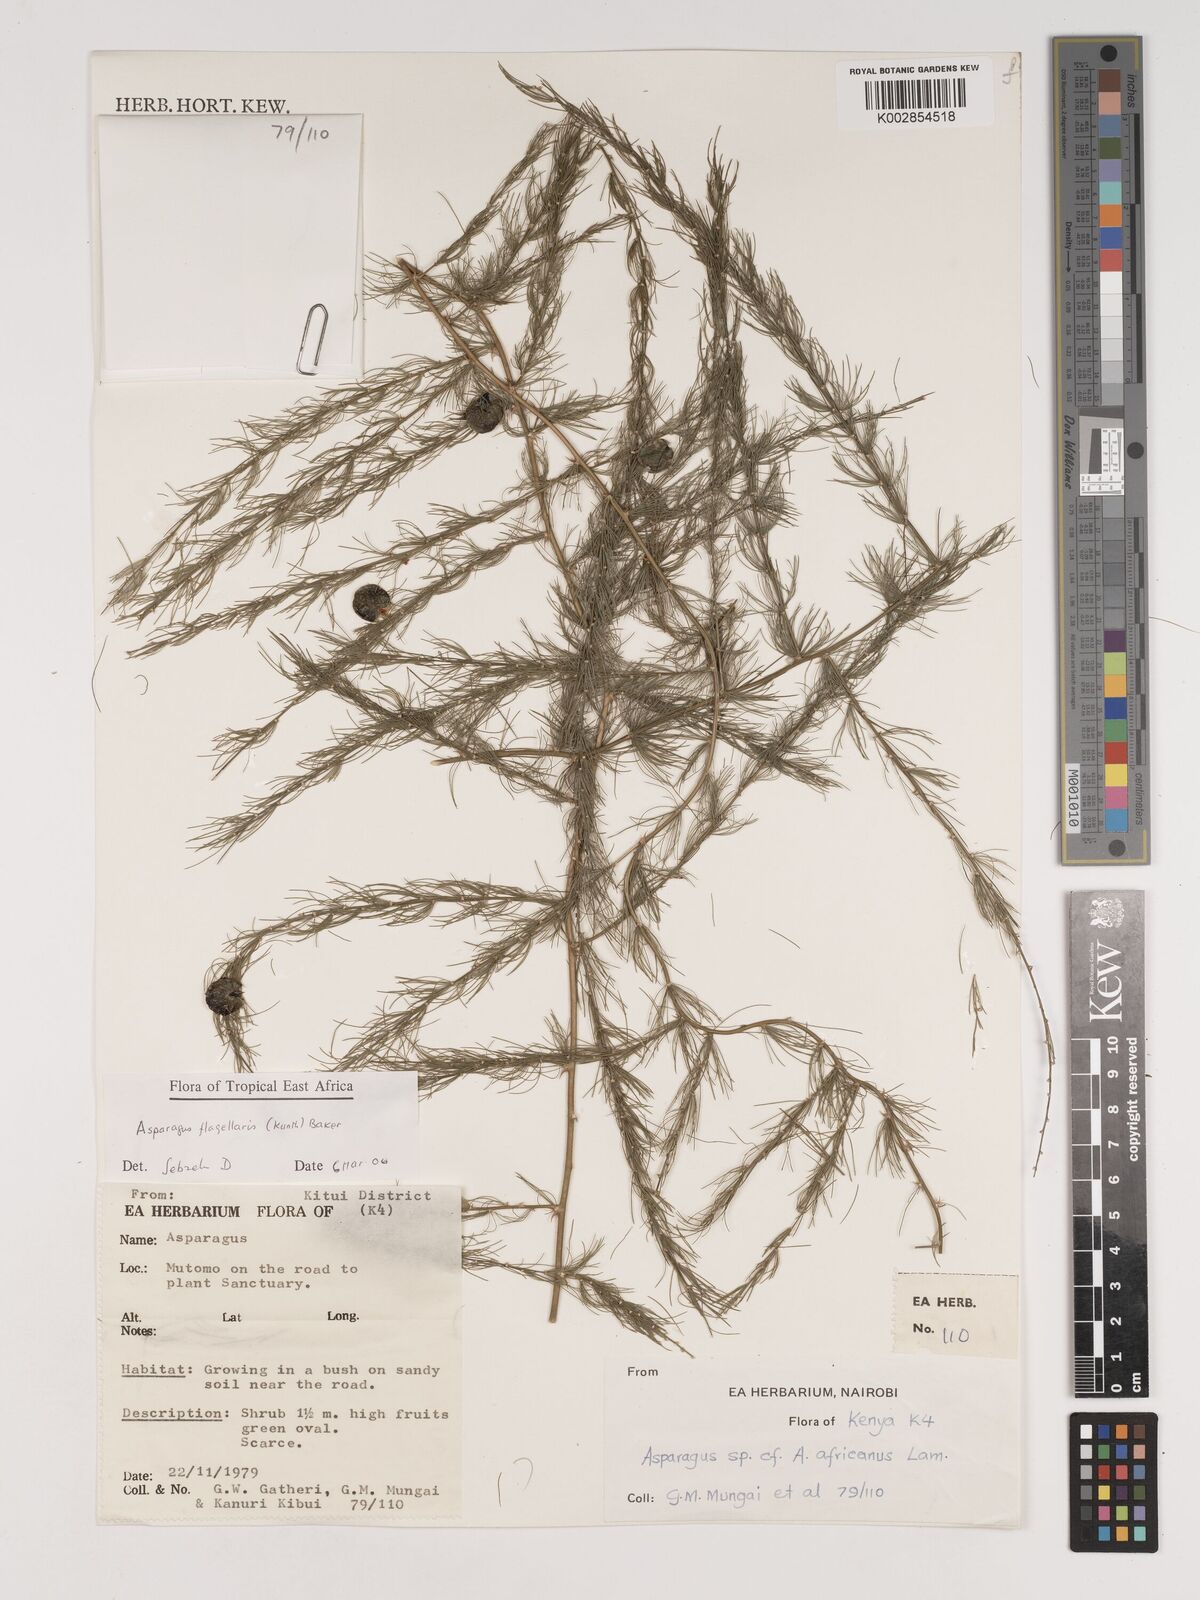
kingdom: Plantae
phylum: Tracheophyta
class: Liliopsida
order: Asparagales
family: Asparagaceae
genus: Asparagus
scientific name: Asparagus flagellaris
